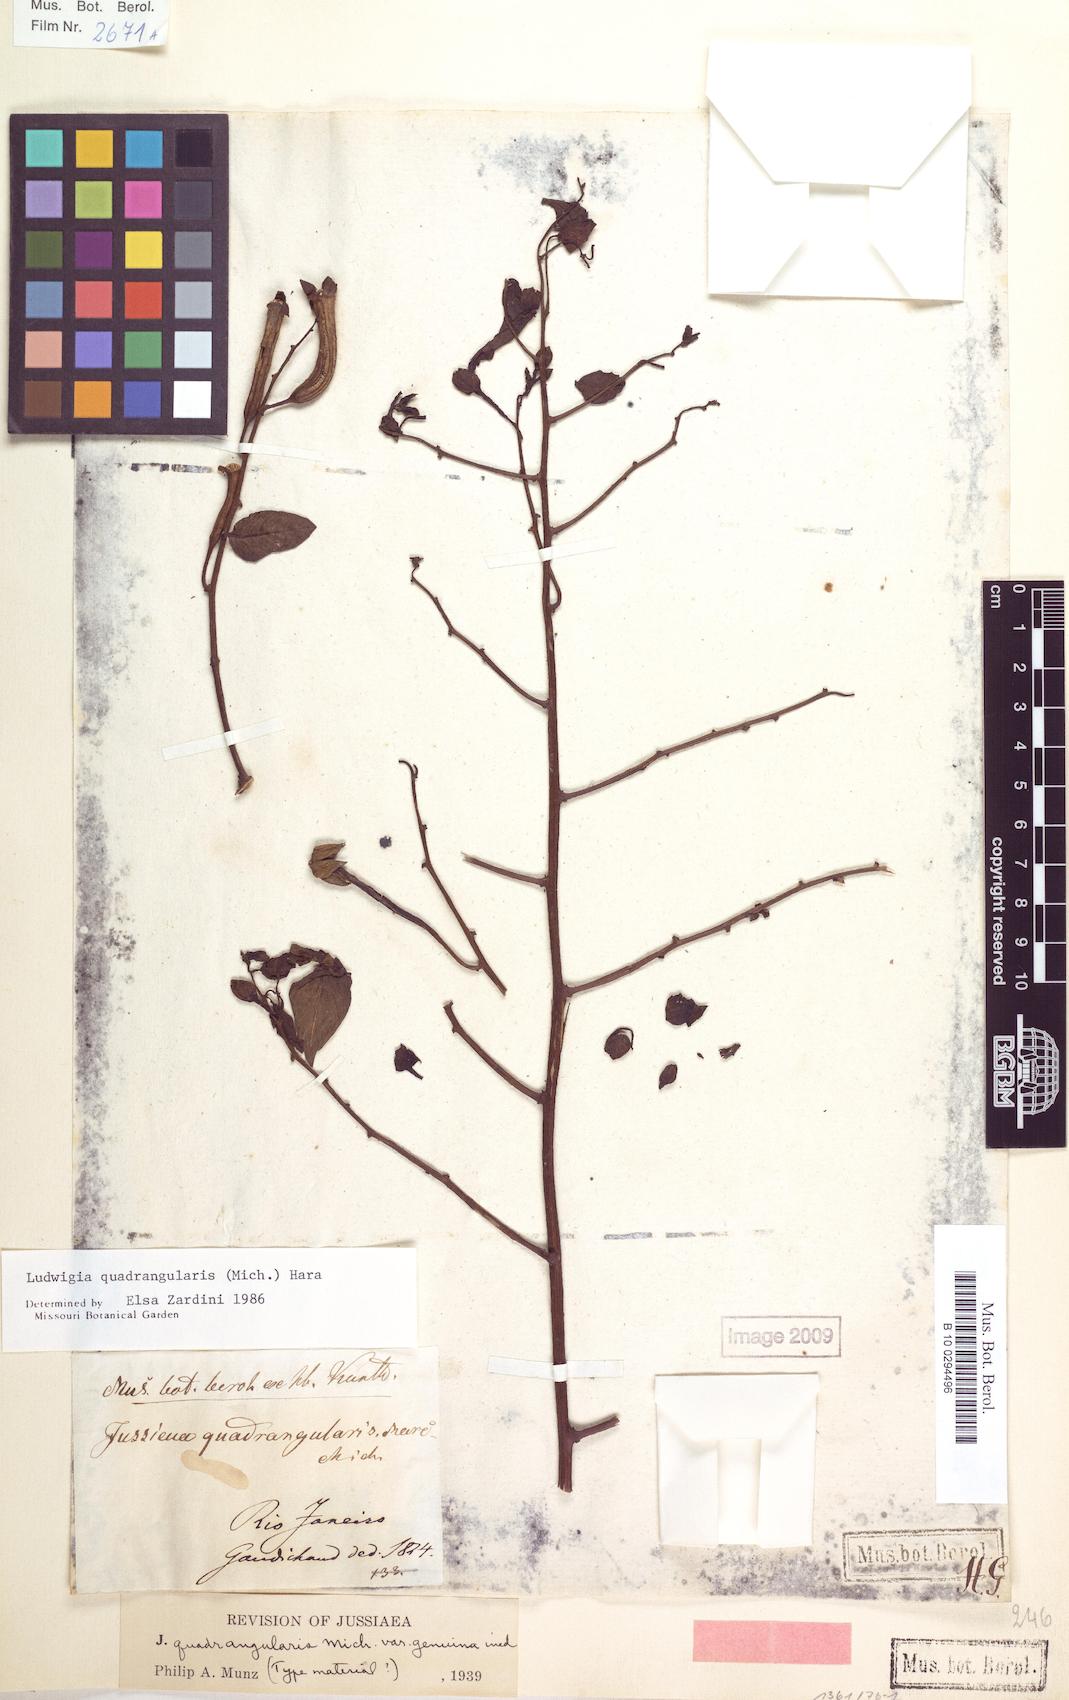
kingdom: Plantae
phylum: Tracheophyta
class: Magnoliopsida
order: Myrtales
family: Onagraceae
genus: Ludwigia
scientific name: Ludwigia quadrangularis
